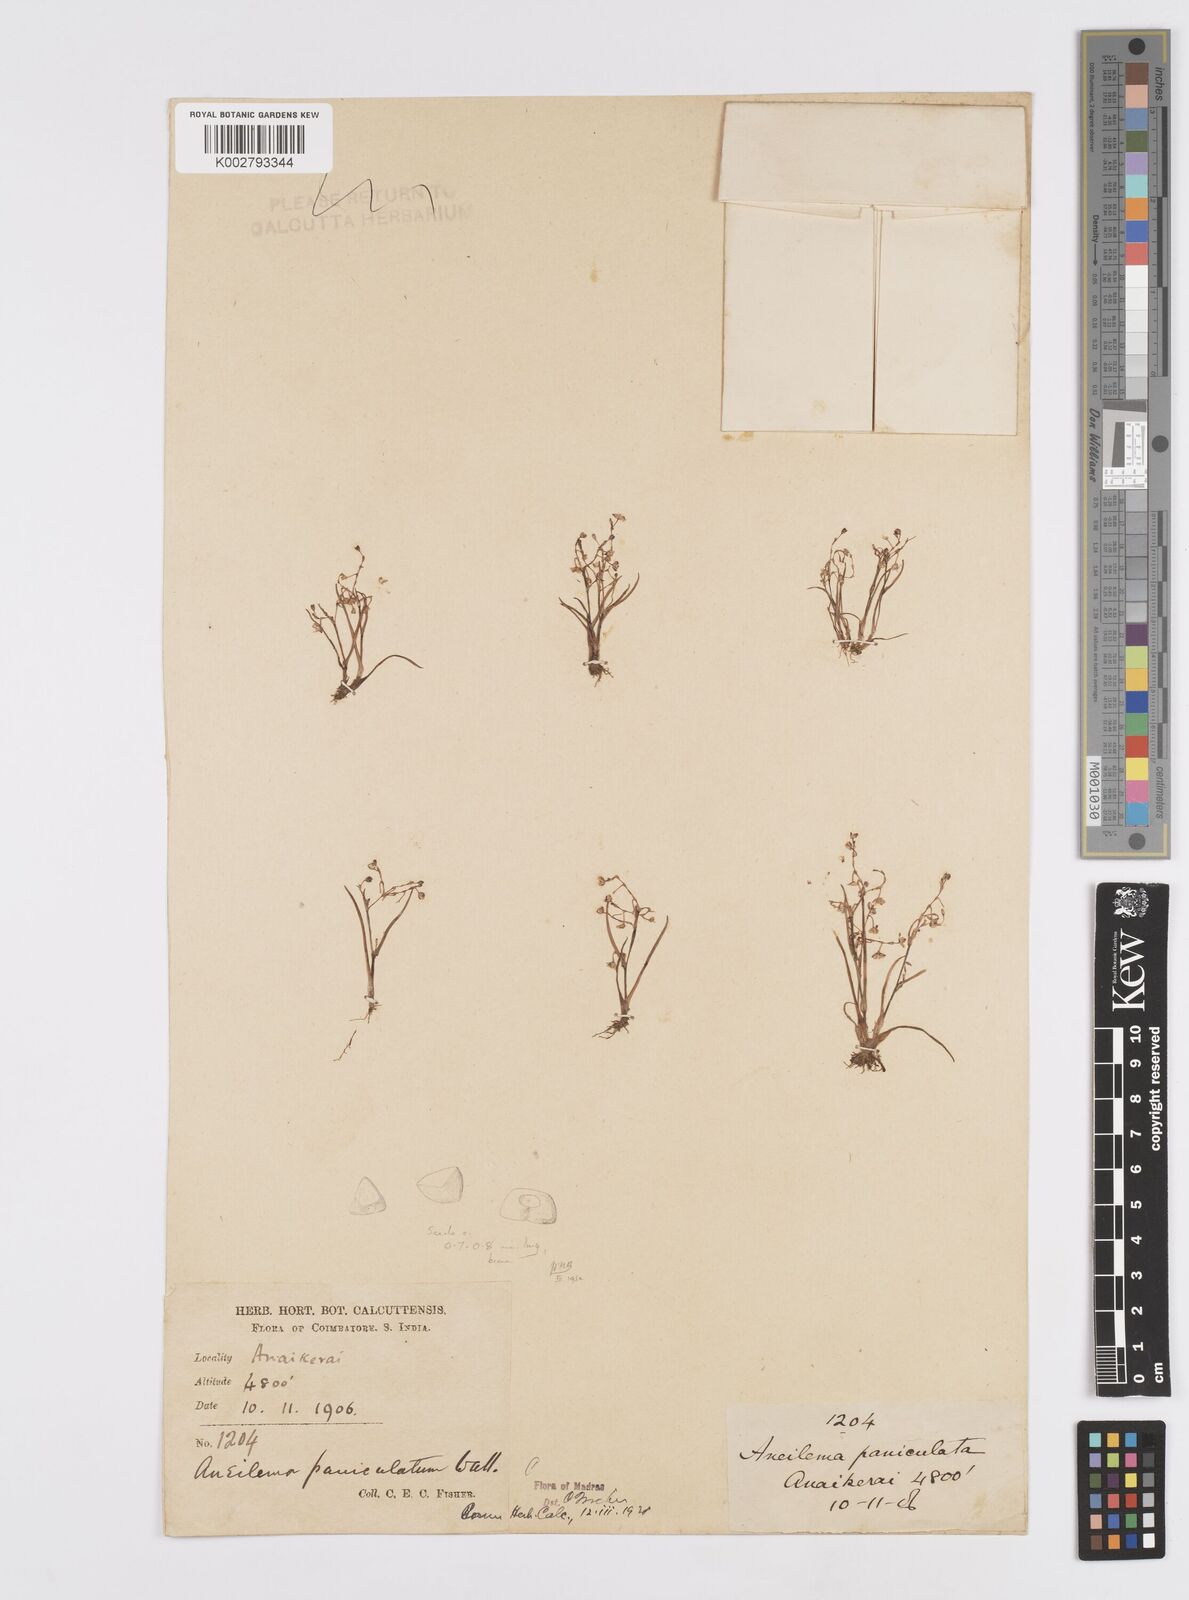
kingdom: Plantae
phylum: Tracheophyta
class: Liliopsida
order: Commelinales
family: Commelinaceae
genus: Murdannia
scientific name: Murdannia semiteres
